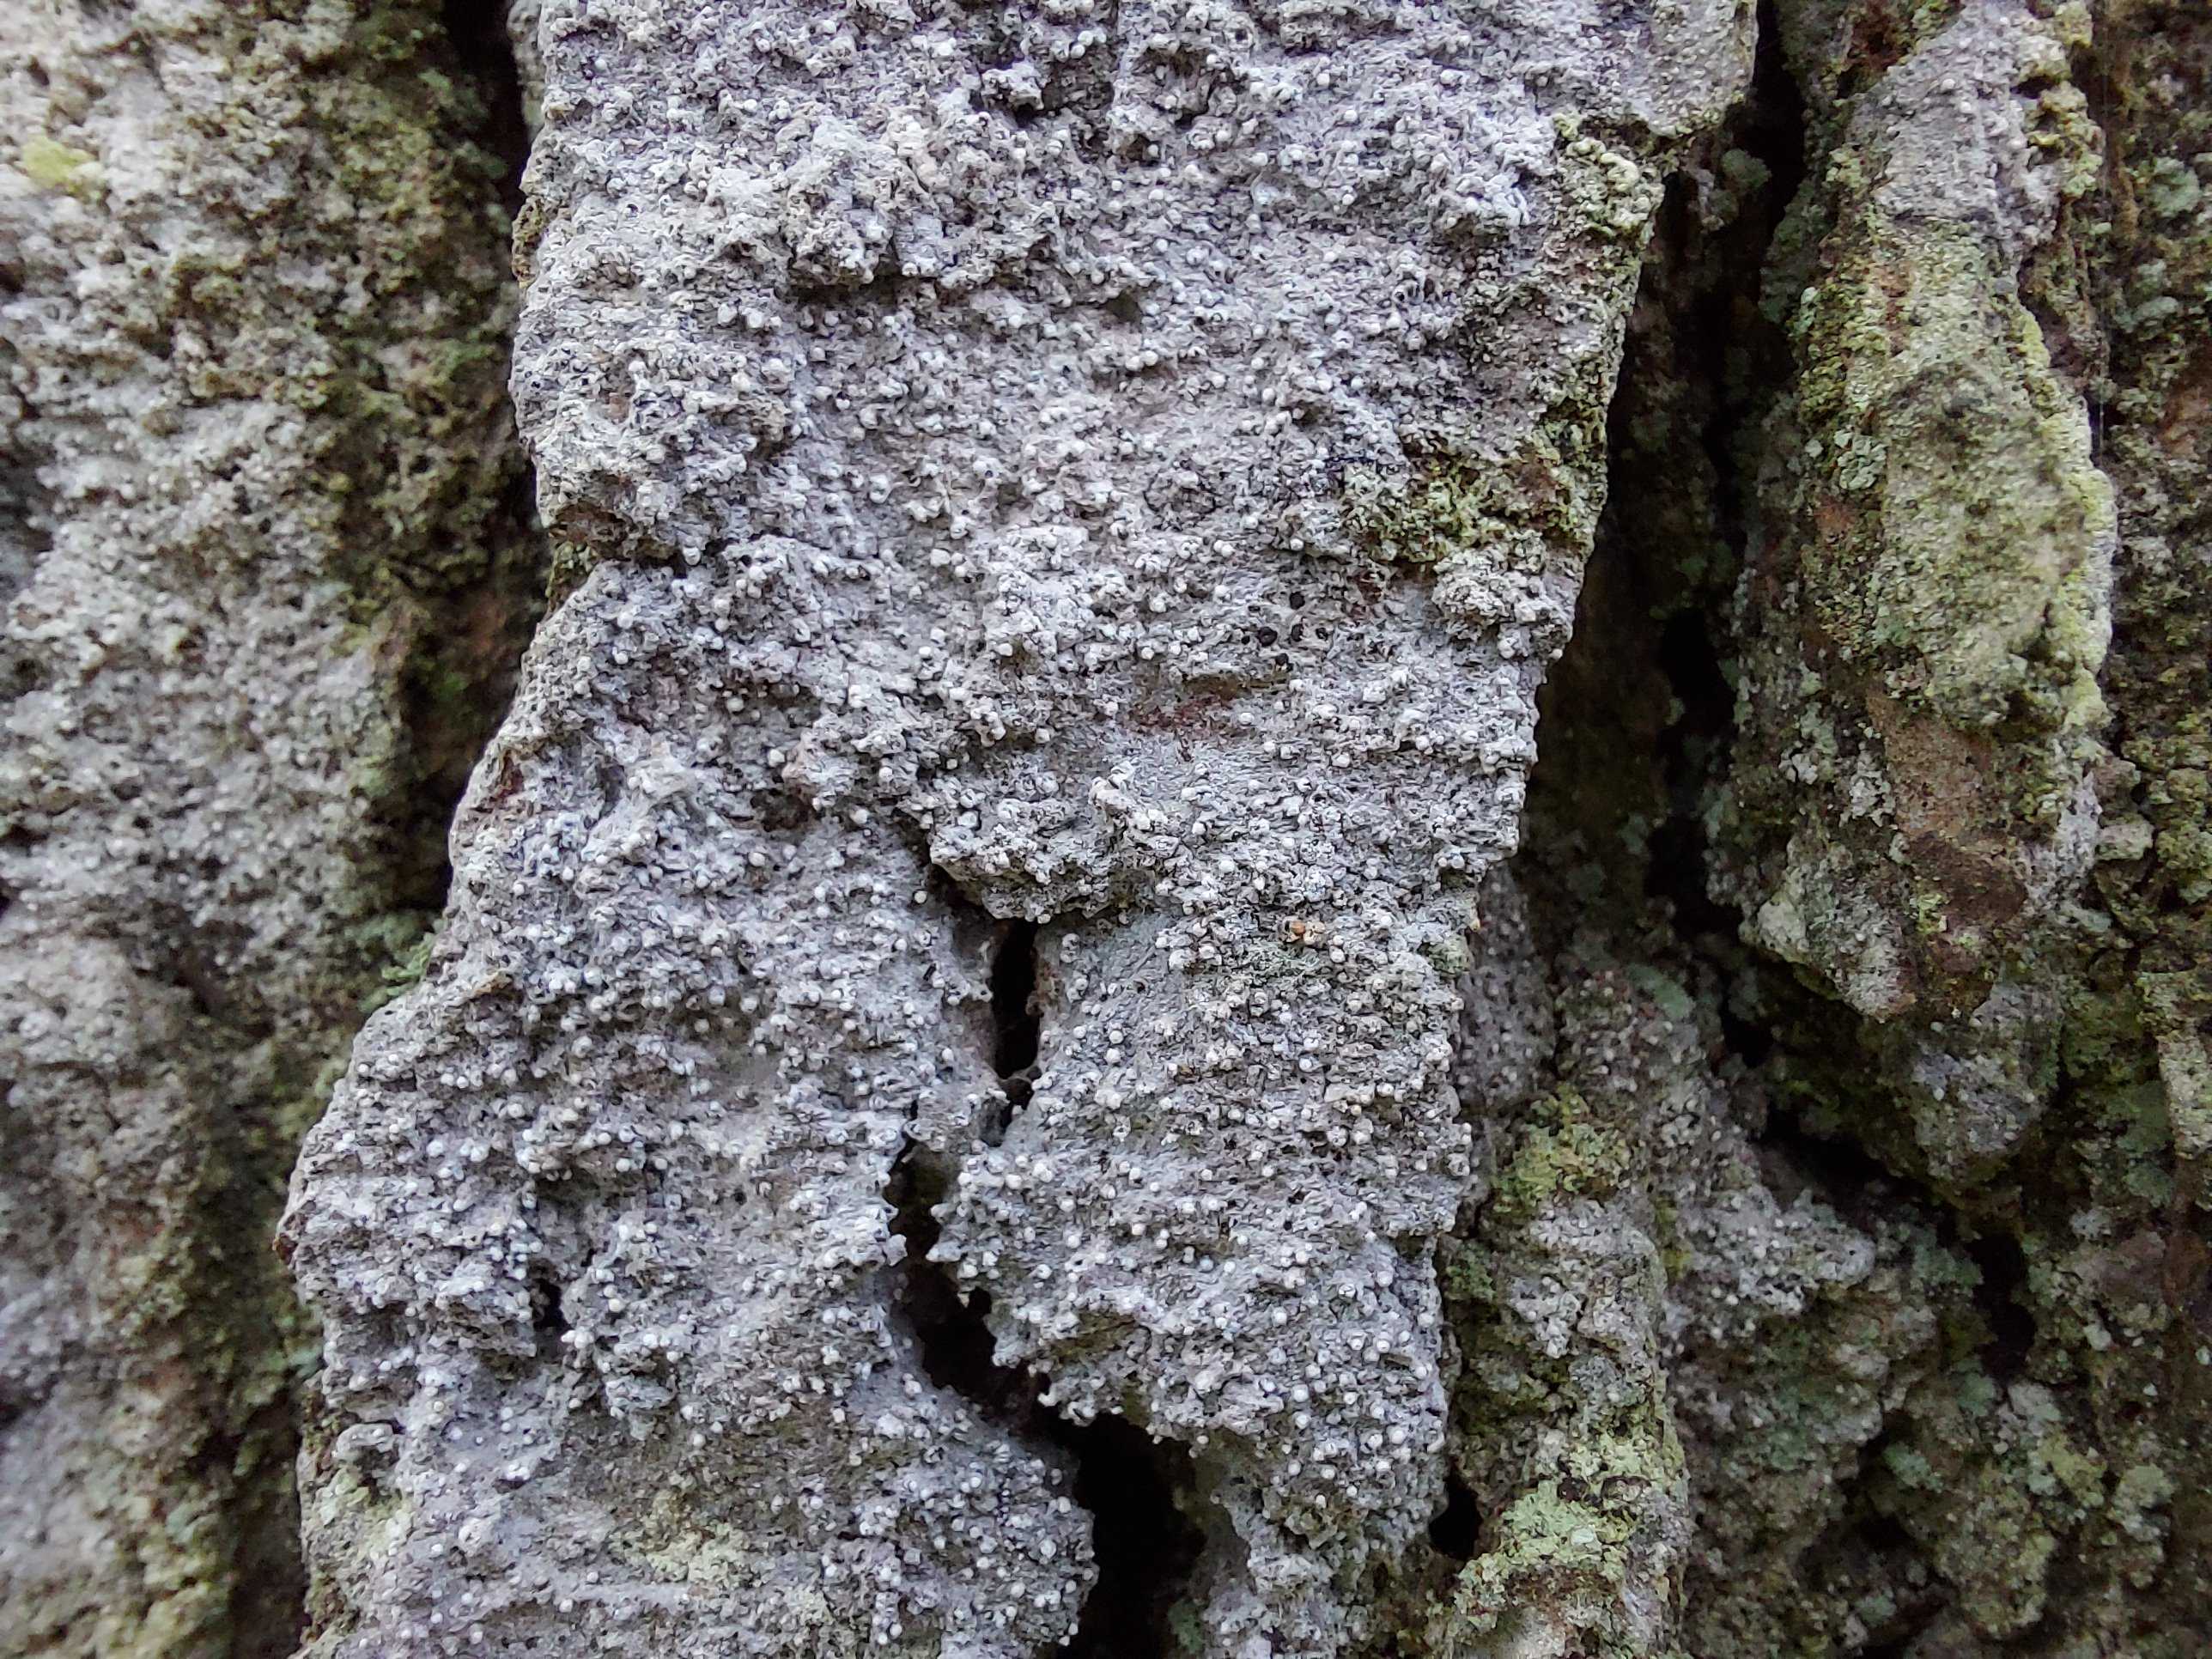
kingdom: Fungi
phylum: Ascomycota
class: Arthoniomycetes
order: Arthoniales
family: Roccellaceae
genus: Lecanactis
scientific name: Lecanactis abietina
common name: grå dugskivelav
